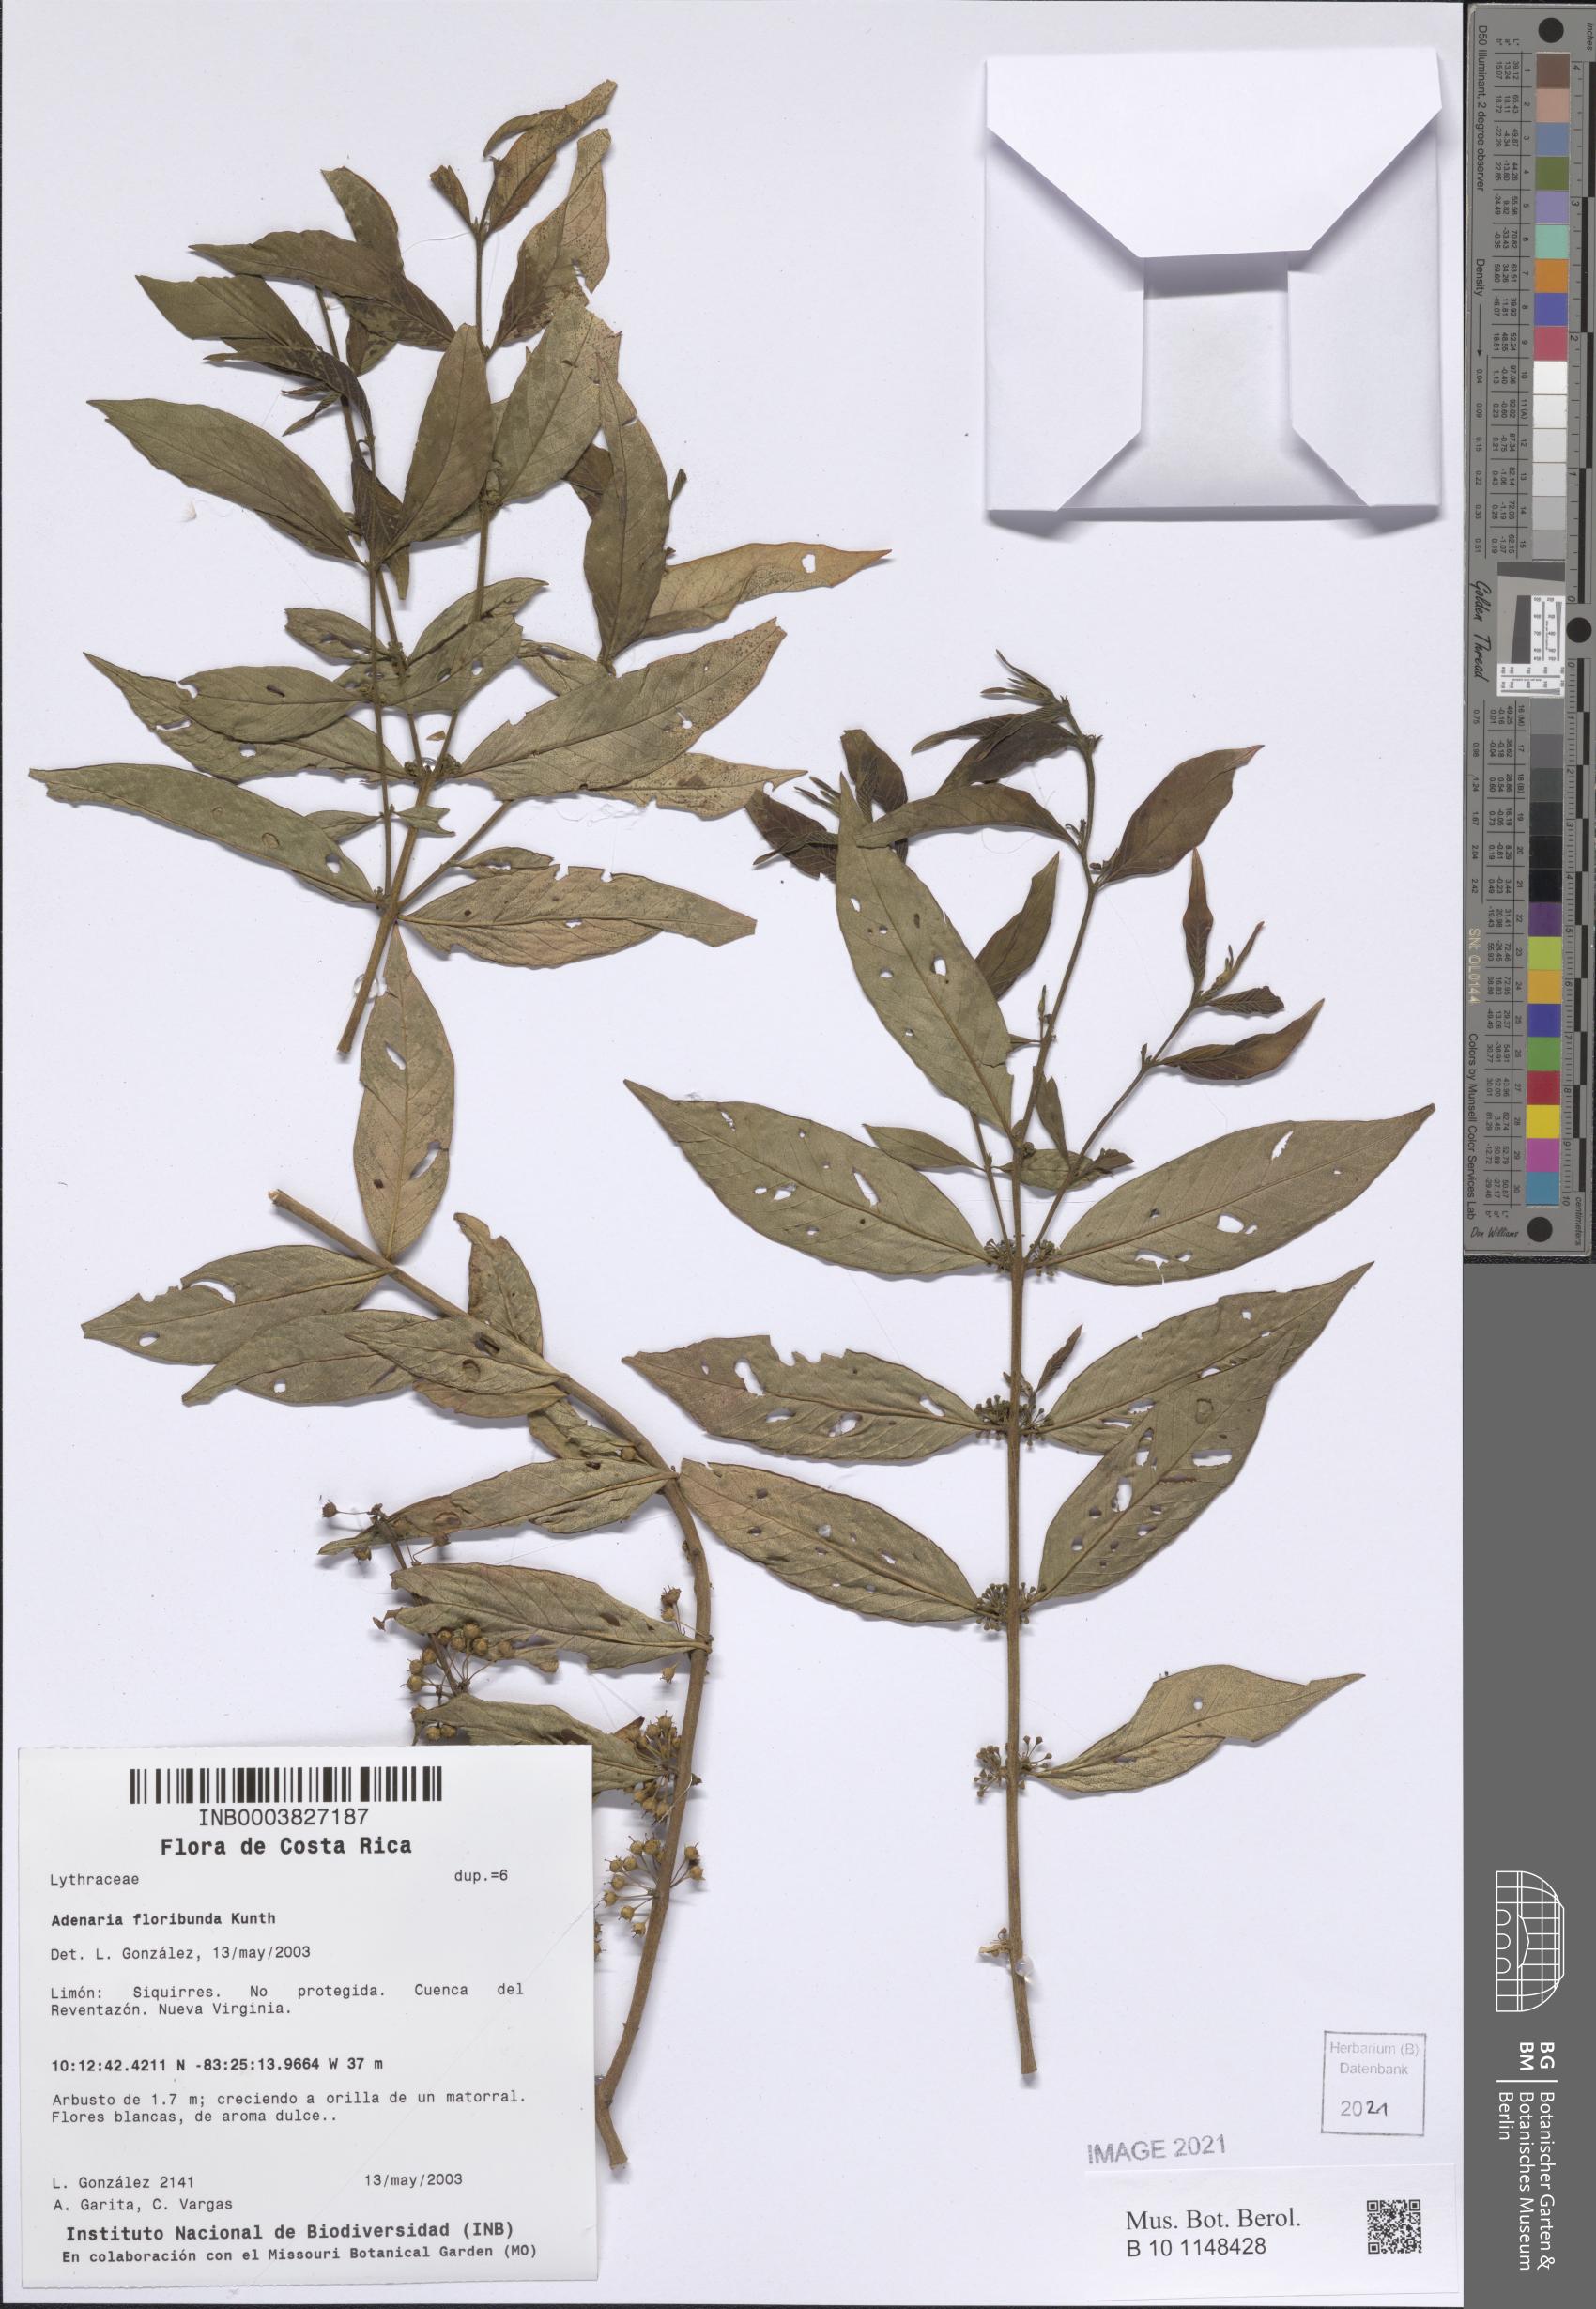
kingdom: Plantae
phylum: Tracheophyta
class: Magnoliopsida
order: Myrtales
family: Lythraceae
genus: Adenaria
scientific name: Adenaria floribunda
